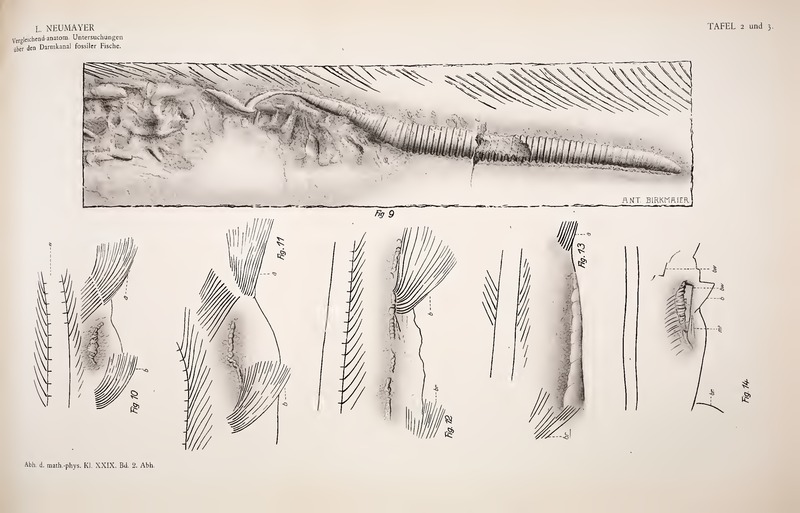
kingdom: Animalia
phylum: Chordata
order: Amiiformes
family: Caturidae
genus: Amblysemius
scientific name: Amblysemius pachyurus
